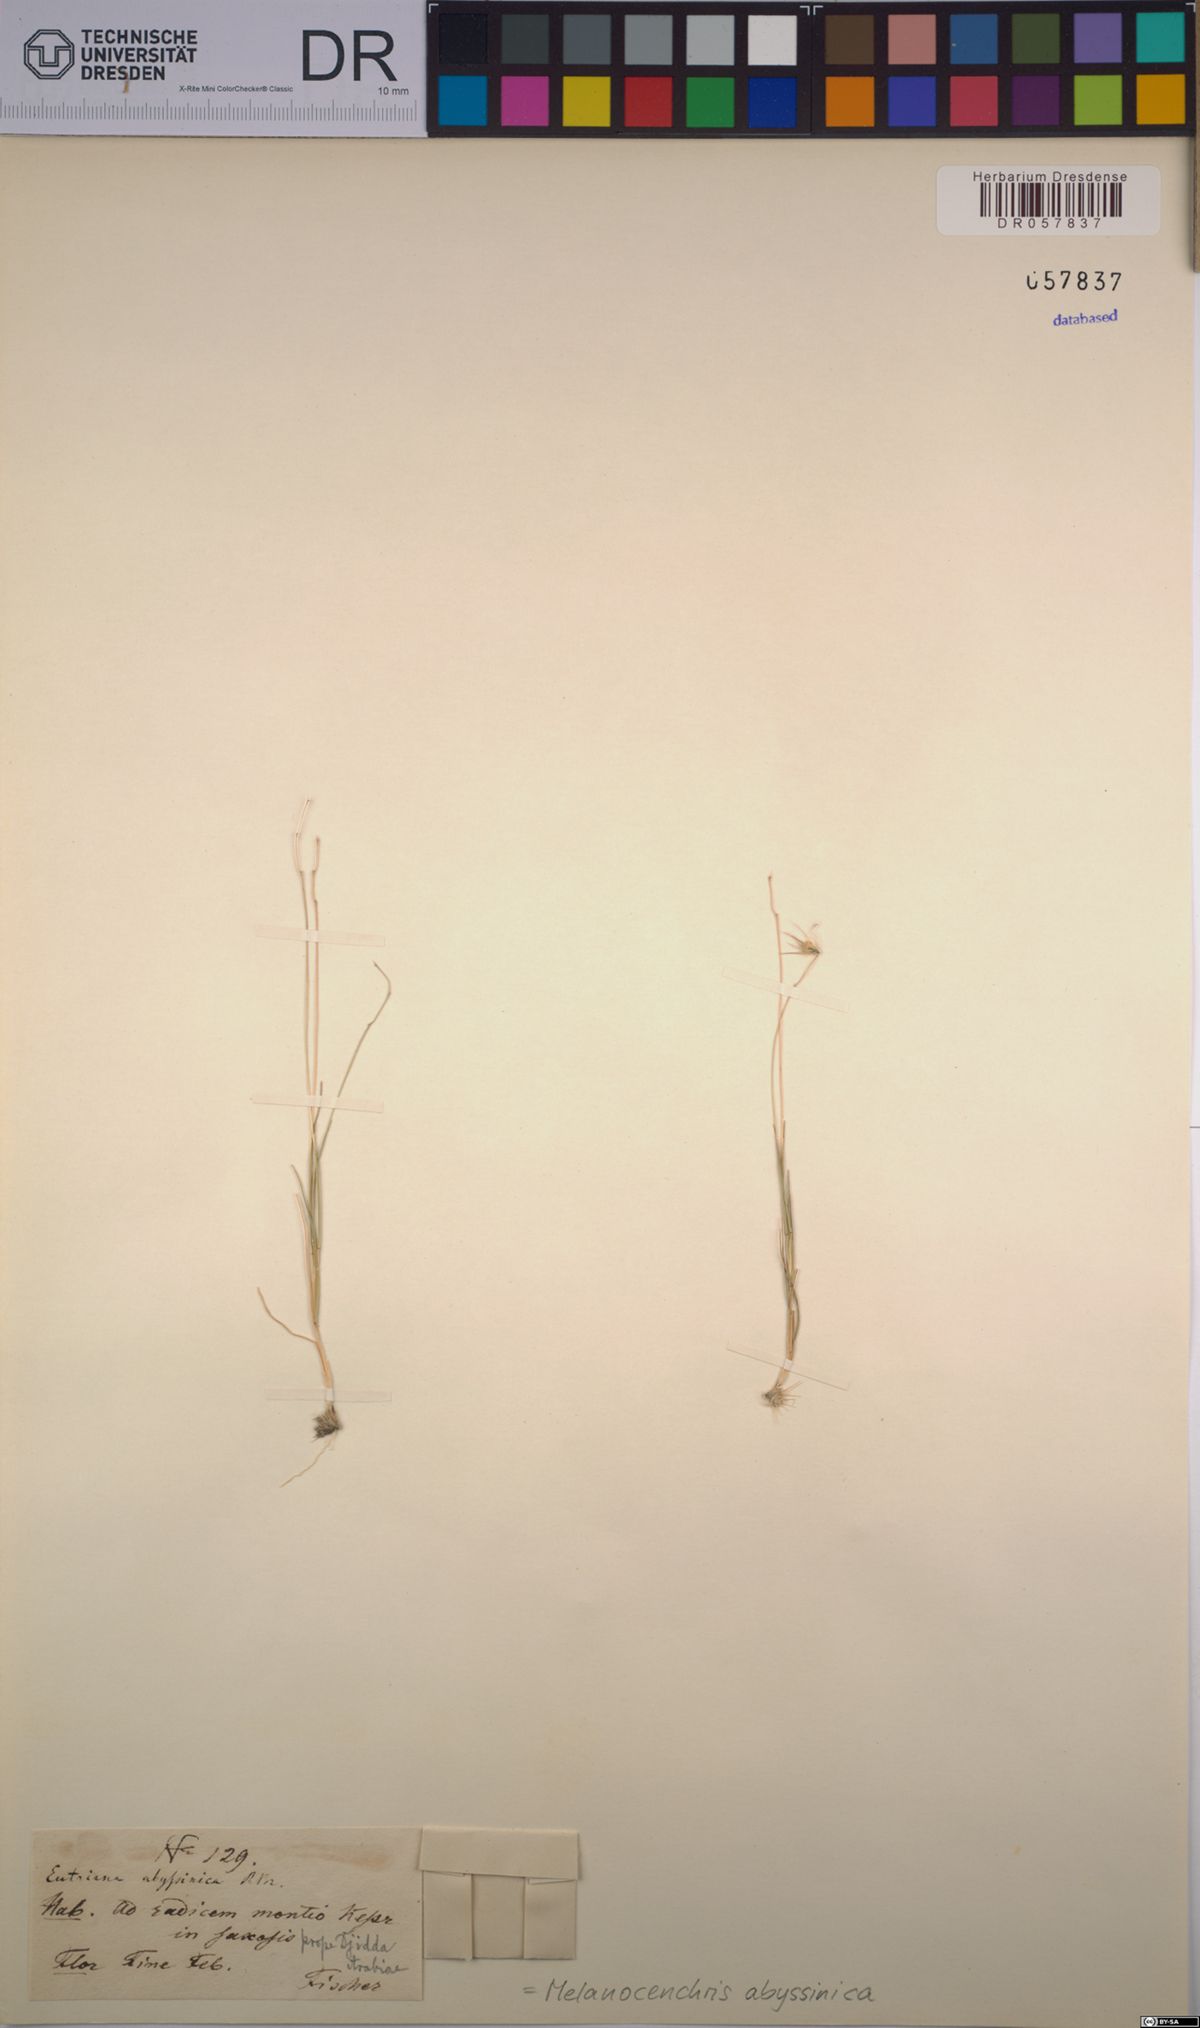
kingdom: Plantae
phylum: Tracheophyta
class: Liliopsida
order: Poales
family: Poaceae
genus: Melanocenchris
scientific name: Melanocenchris abyssinica
